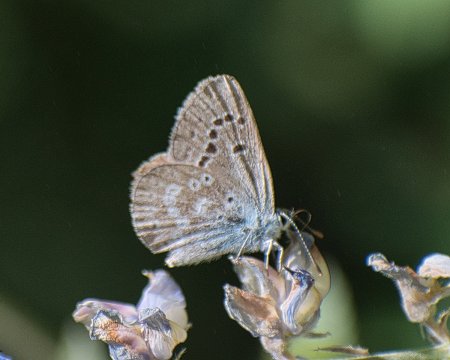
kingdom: Animalia
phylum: Arthropoda
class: Insecta
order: Lepidoptera
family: Lycaenidae
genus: Icaricia
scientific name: Icaricia icarioides
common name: Boisduval's Blue
